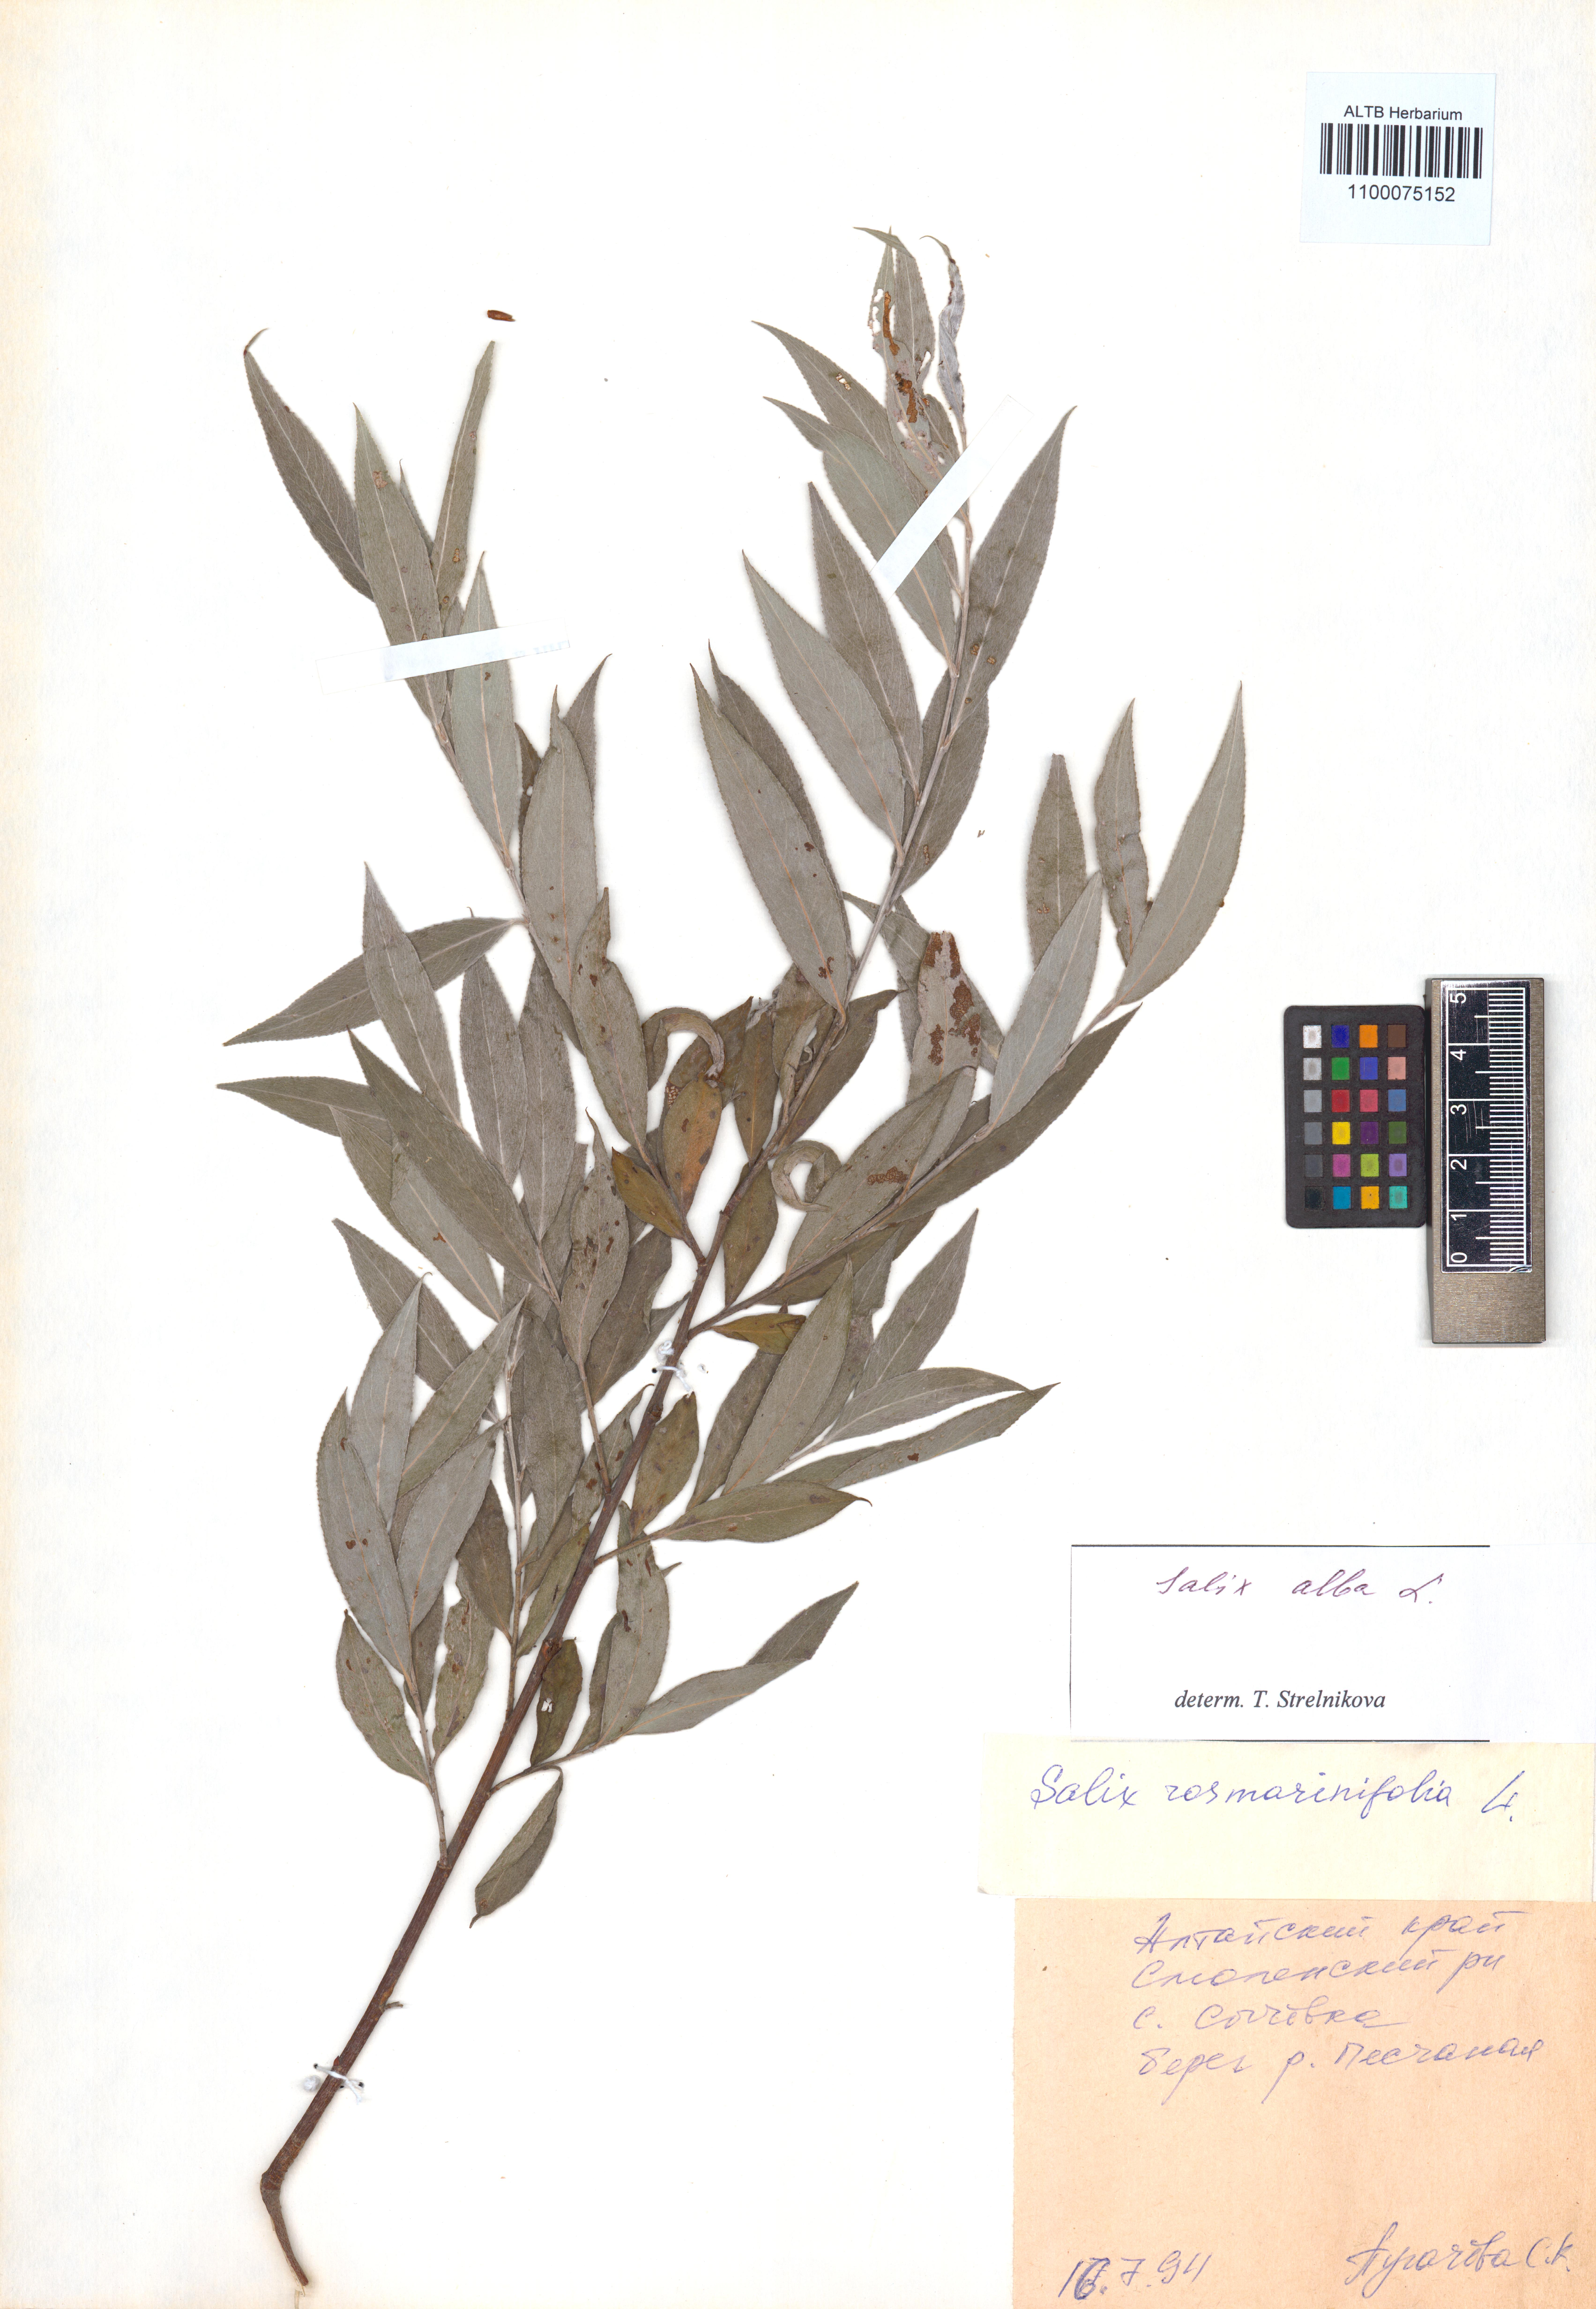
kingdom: Plantae
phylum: Tracheophyta
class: Magnoliopsida
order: Malpighiales
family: Salicaceae
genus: Salix
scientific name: Salix alba
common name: White willow
